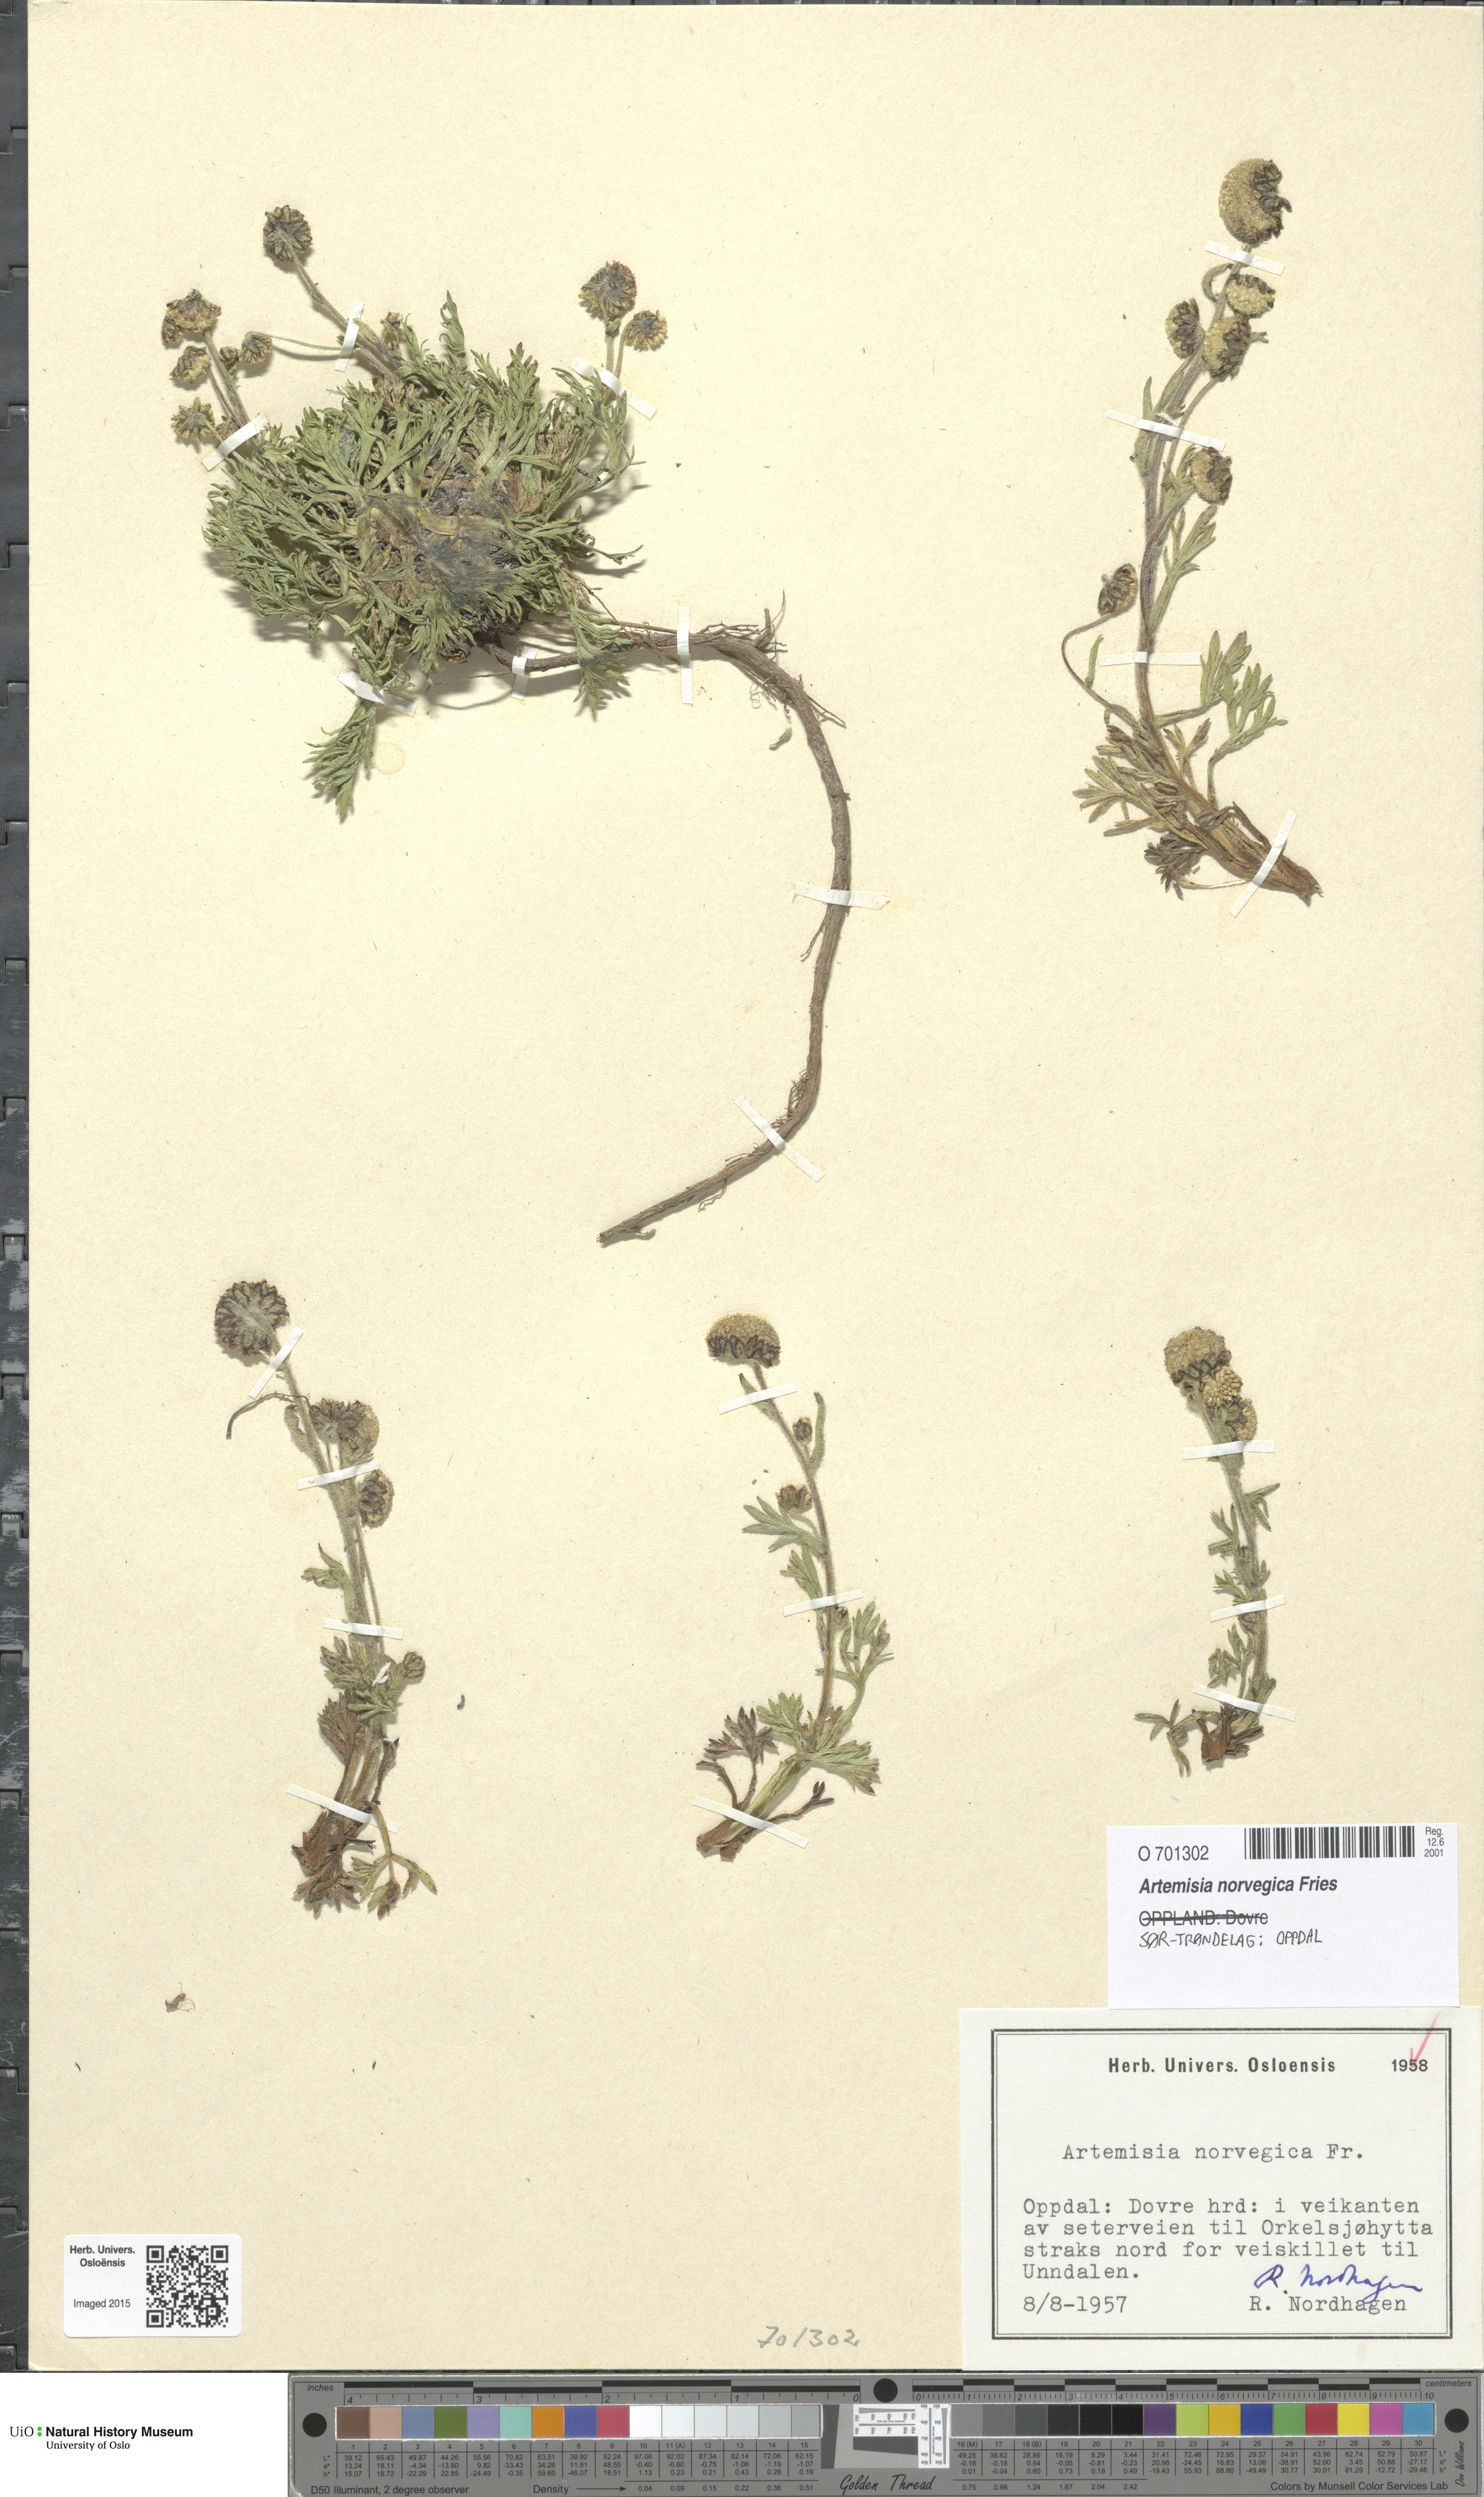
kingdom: Plantae
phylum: Tracheophyta
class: Magnoliopsida
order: Asterales
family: Asteraceae
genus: Artemisia
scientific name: Artemisia norvegica
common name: Norwegian mugwort
